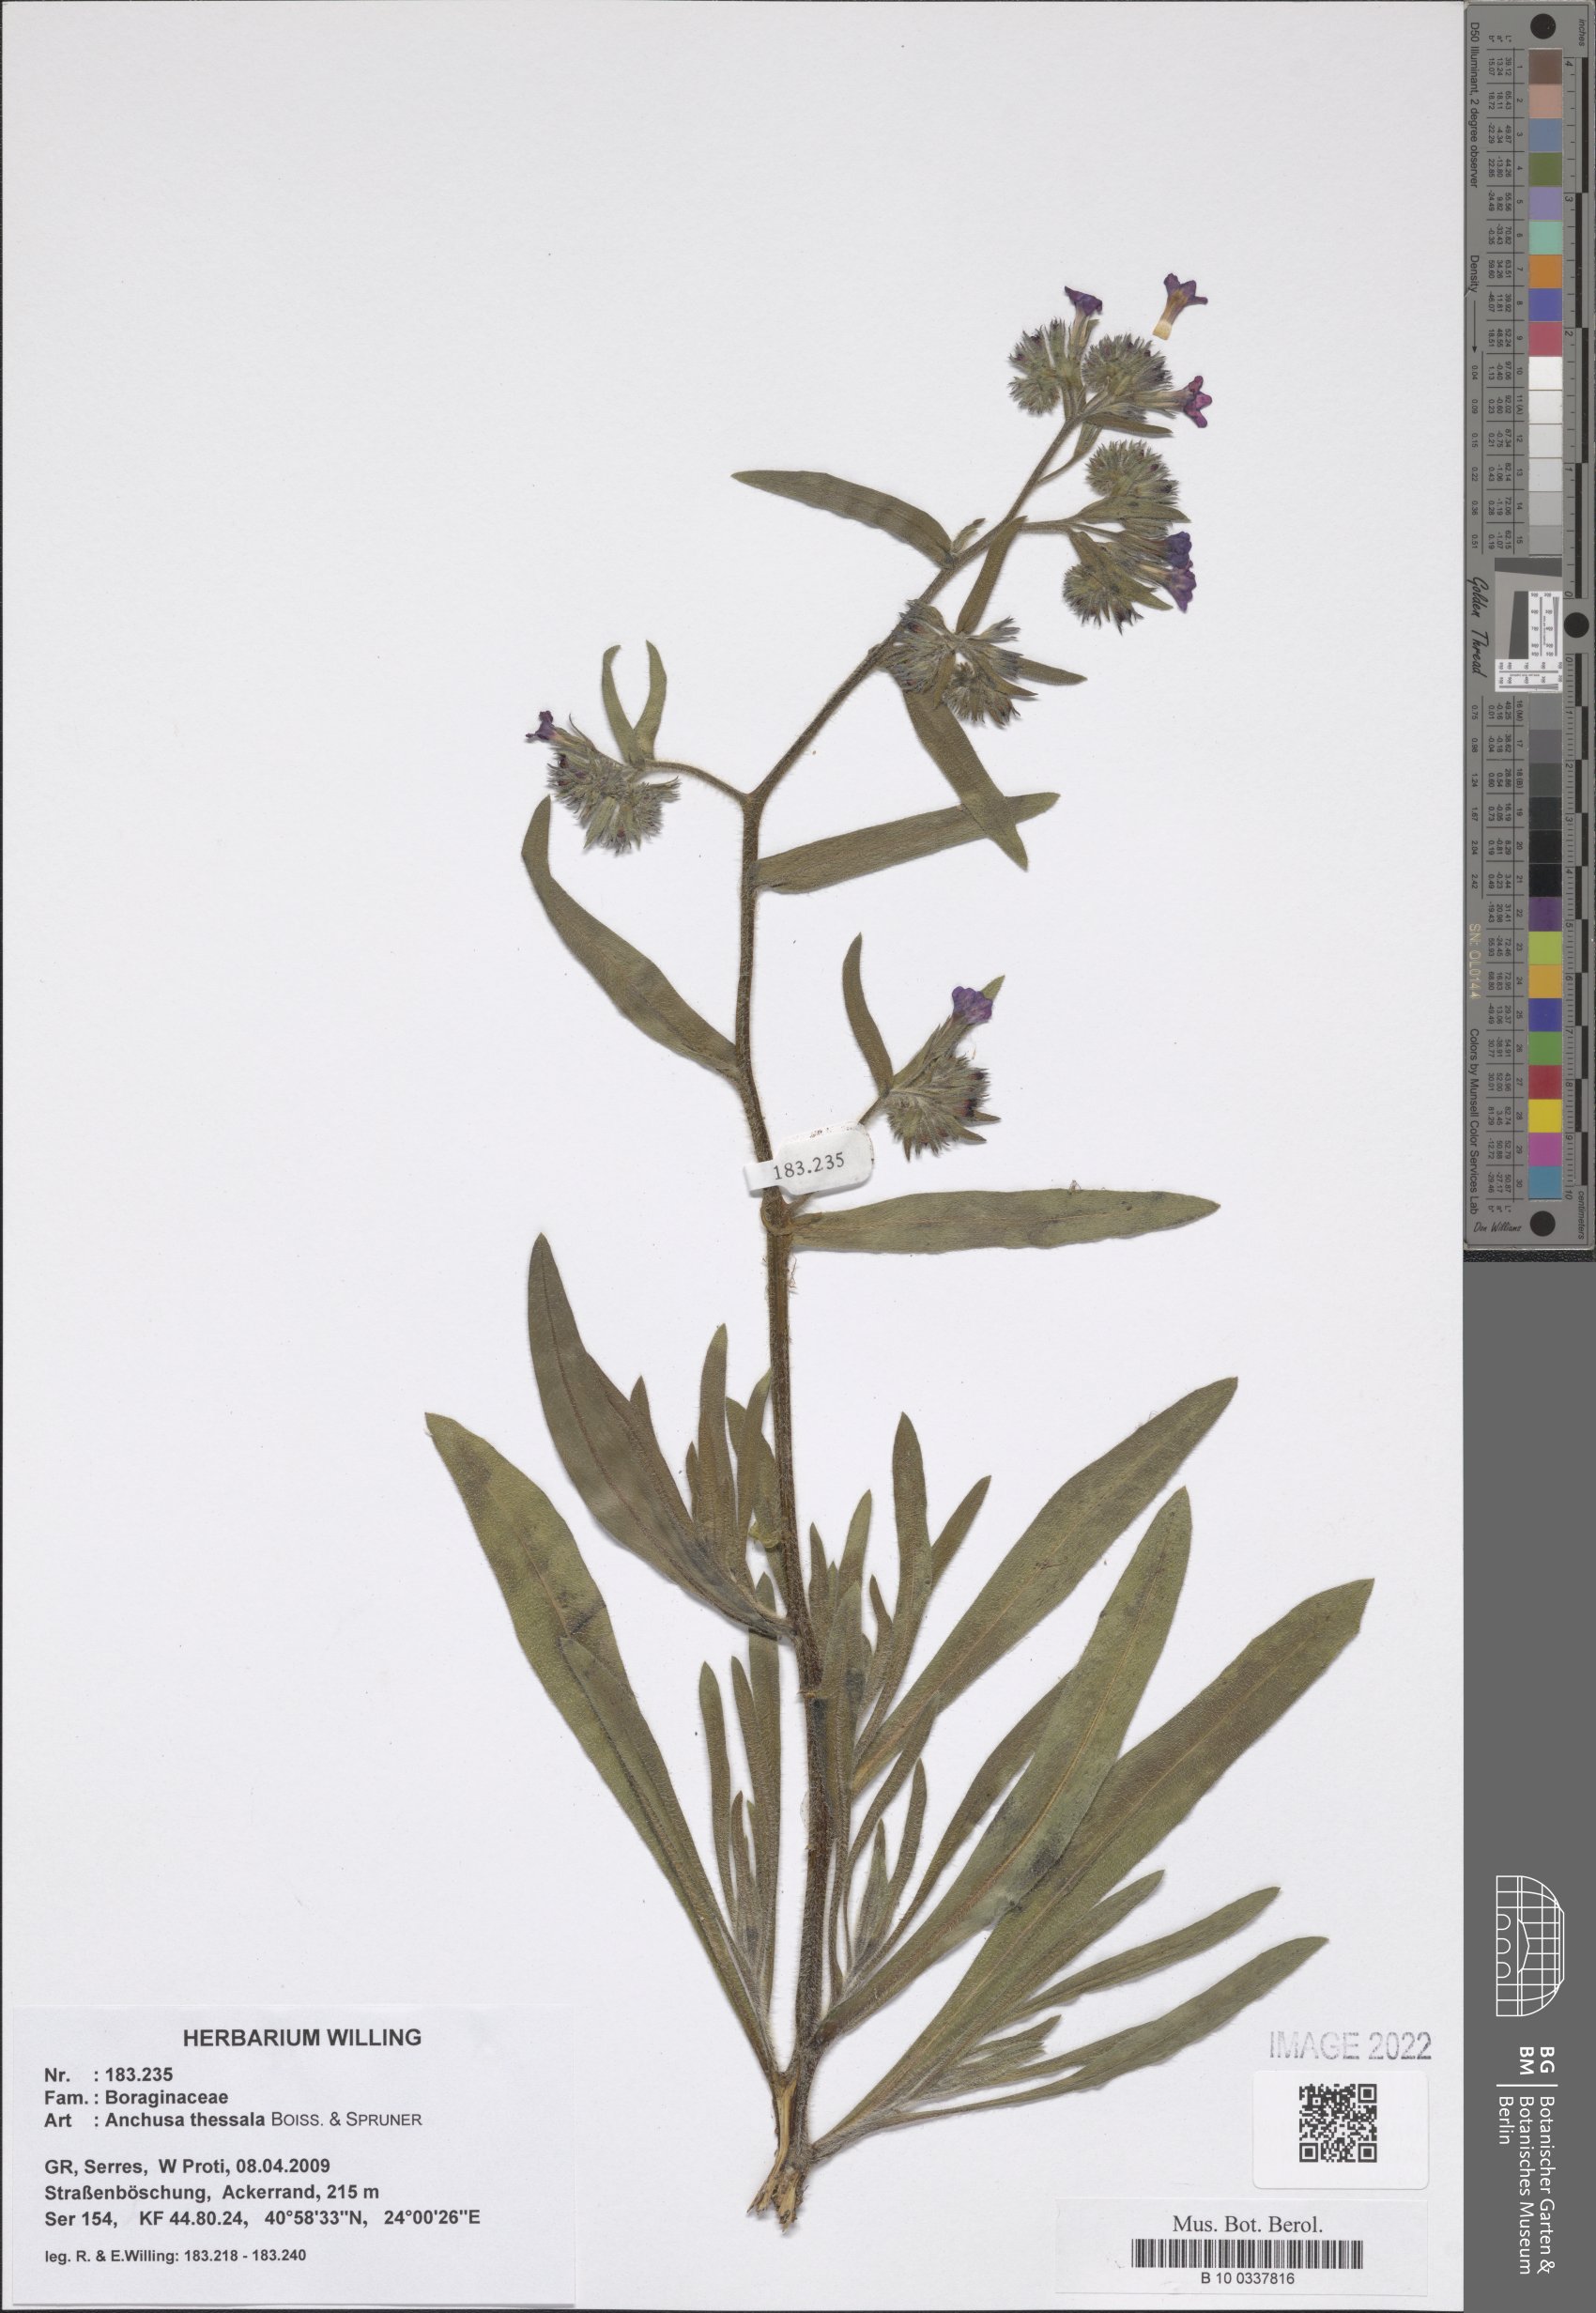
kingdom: Plantae
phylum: Tracheophyta
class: Magnoliopsida
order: Boraginales
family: Boraginaceae
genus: Anchusa
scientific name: Anchusa thessala
